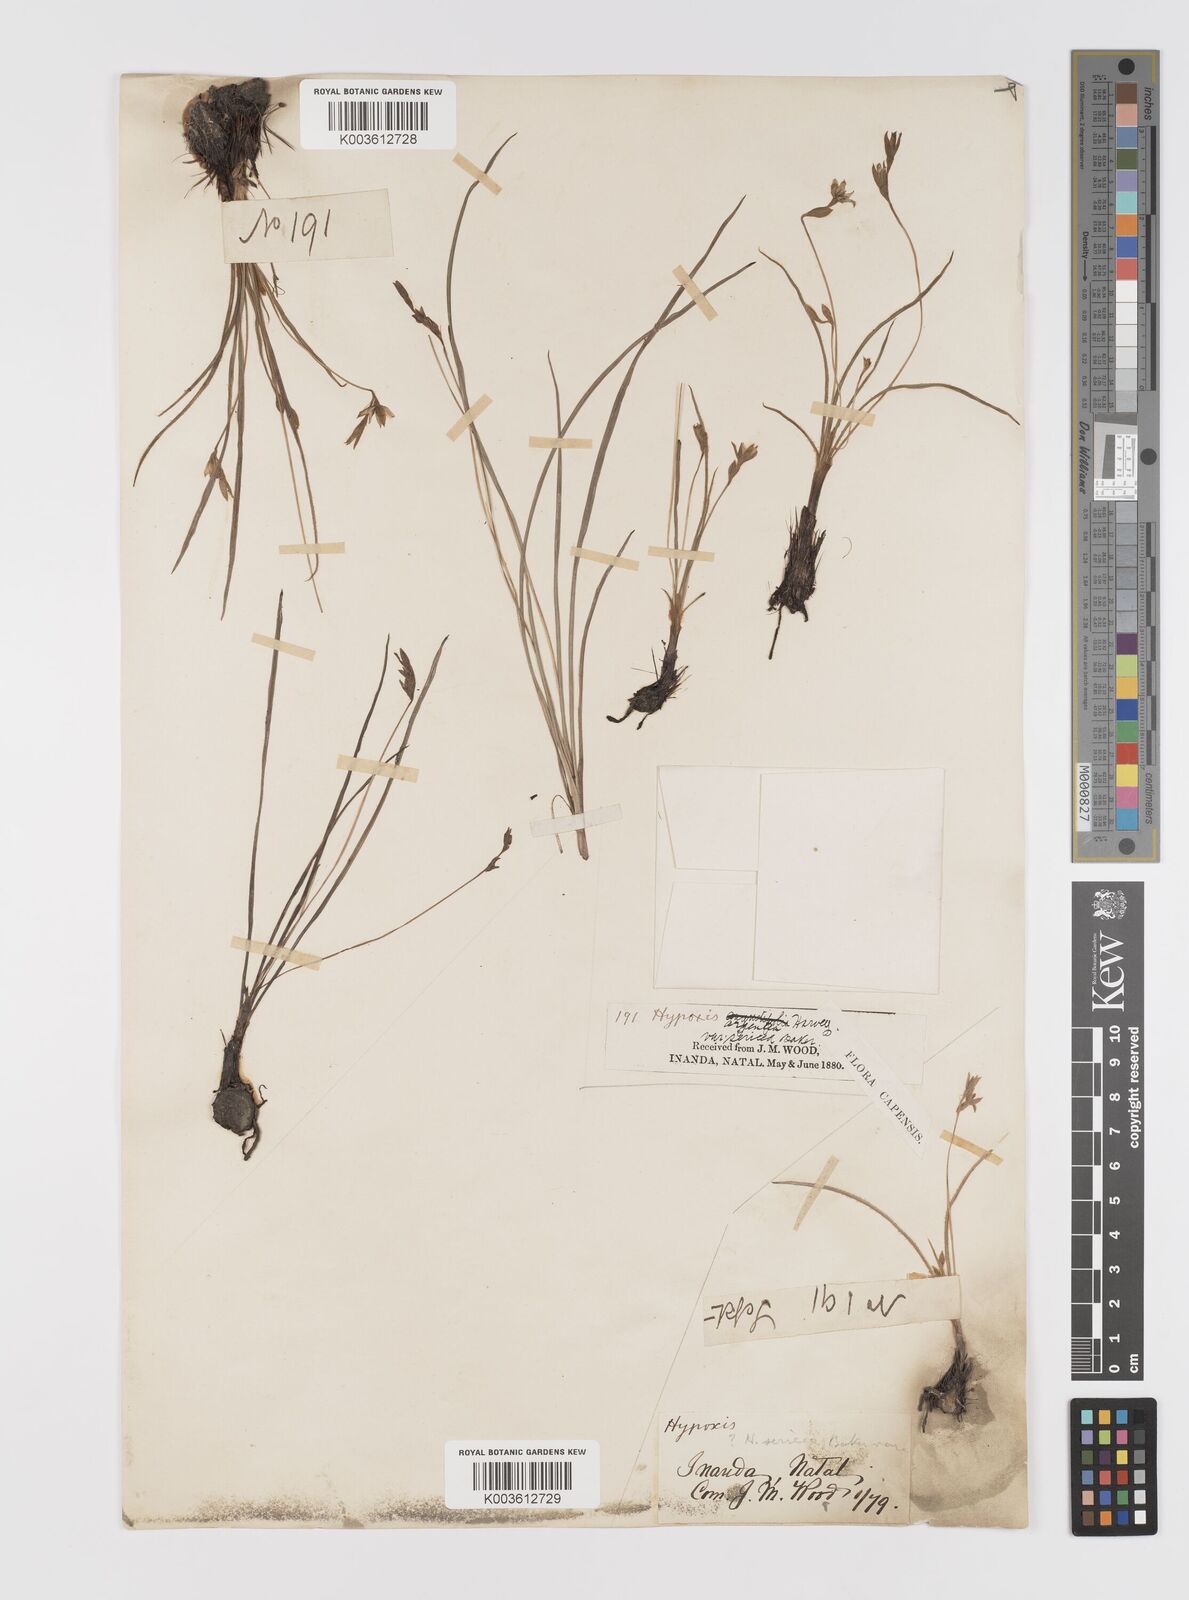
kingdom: Plantae
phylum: Tracheophyta
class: Liliopsida
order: Asparagales
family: Hypoxidaceae
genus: Hypoxis
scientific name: Hypoxis gerrardii
